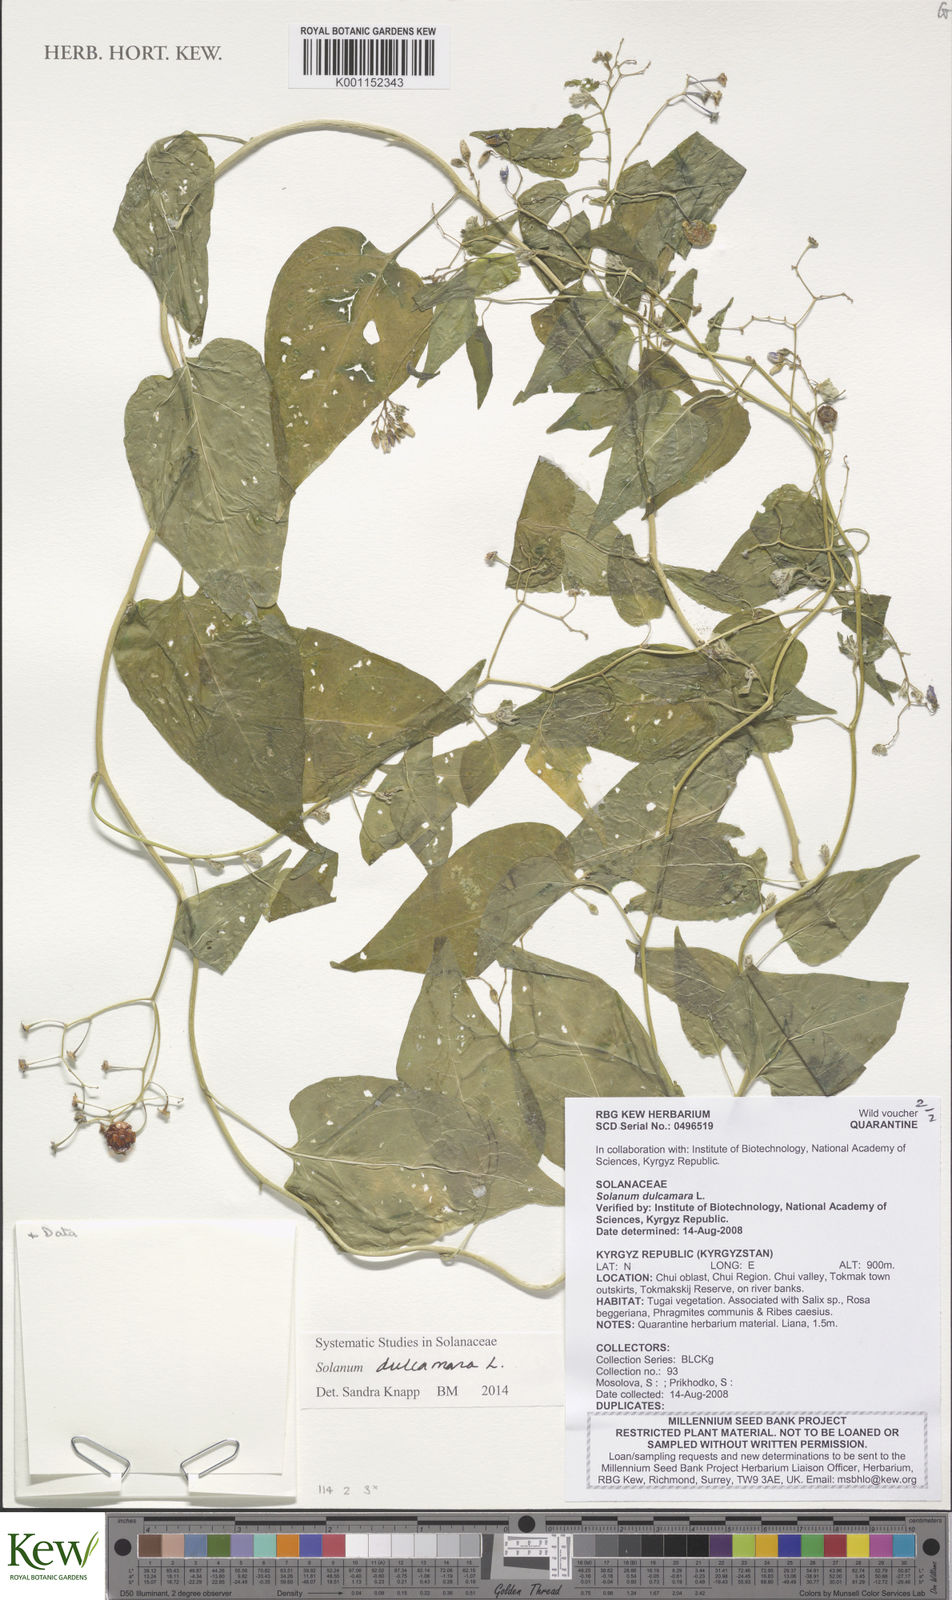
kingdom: Plantae
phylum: Tracheophyta
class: Magnoliopsida
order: Solanales
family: Solanaceae
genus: Solanum
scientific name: Solanum dulcamara
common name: Climbing nightshade
